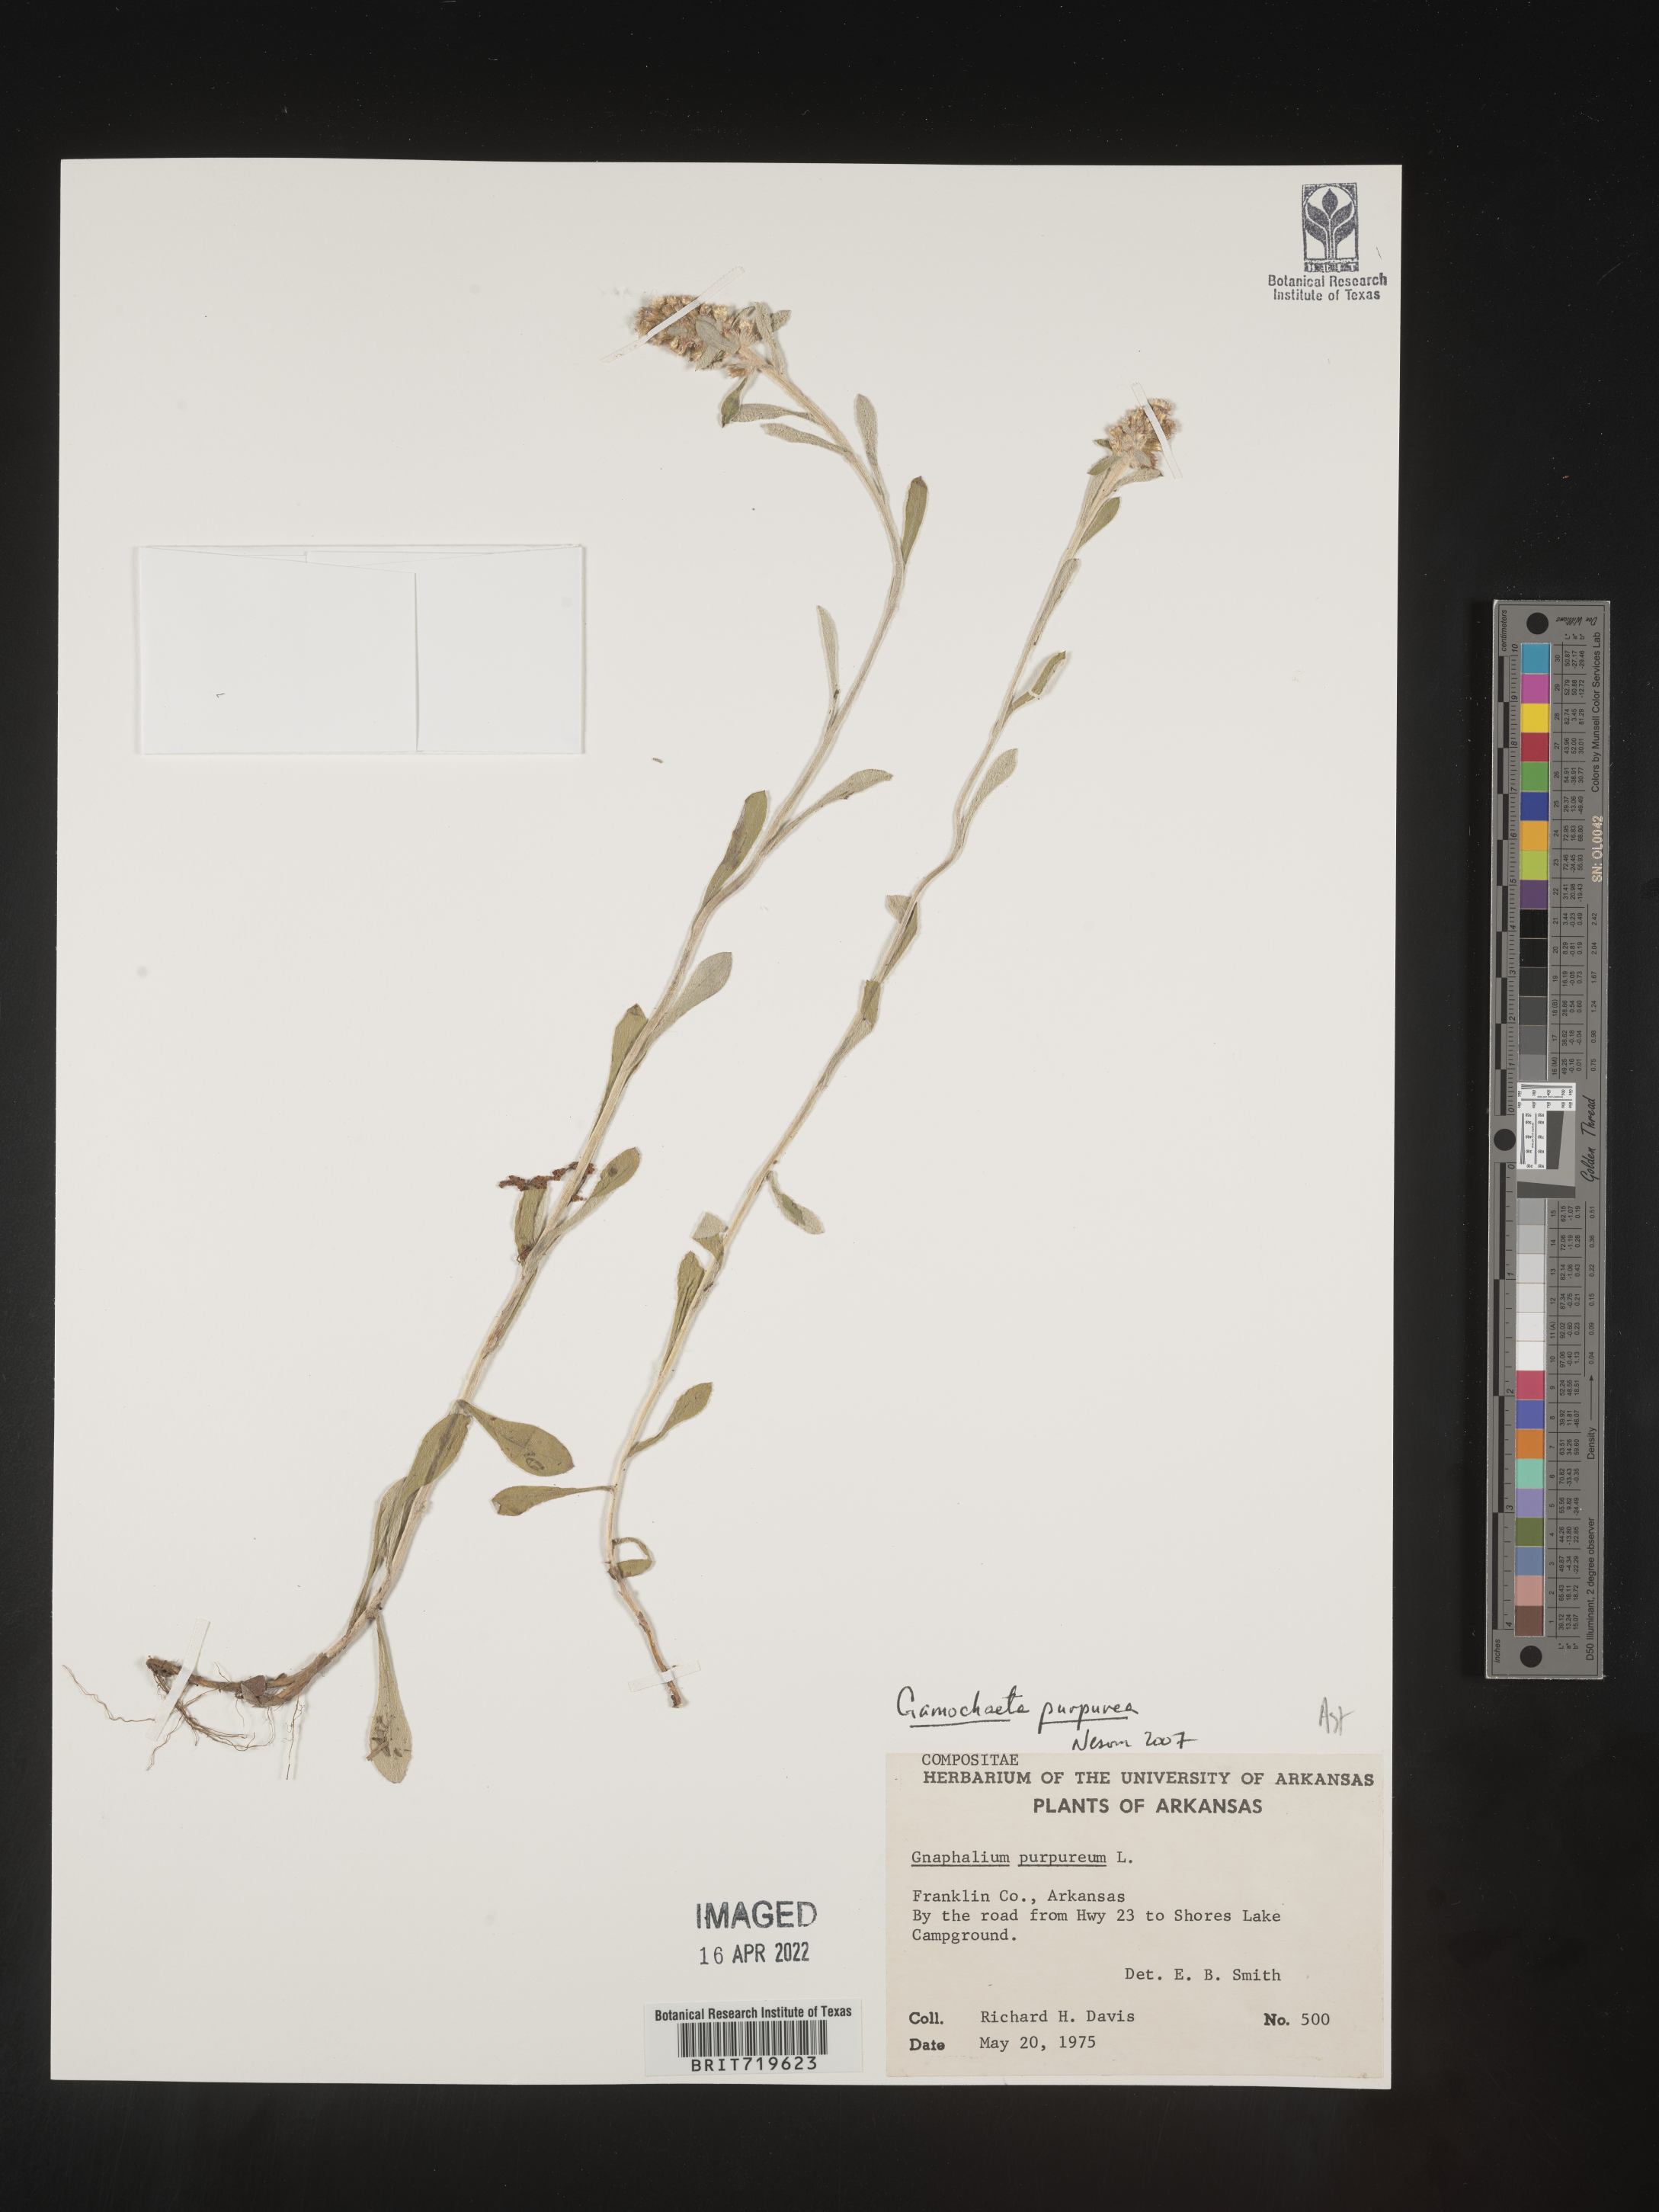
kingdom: Plantae
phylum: Tracheophyta
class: Magnoliopsida
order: Asterales
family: Asteraceae
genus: Gamochaeta
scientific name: Gamochaeta purpurea
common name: Purple cudweed
